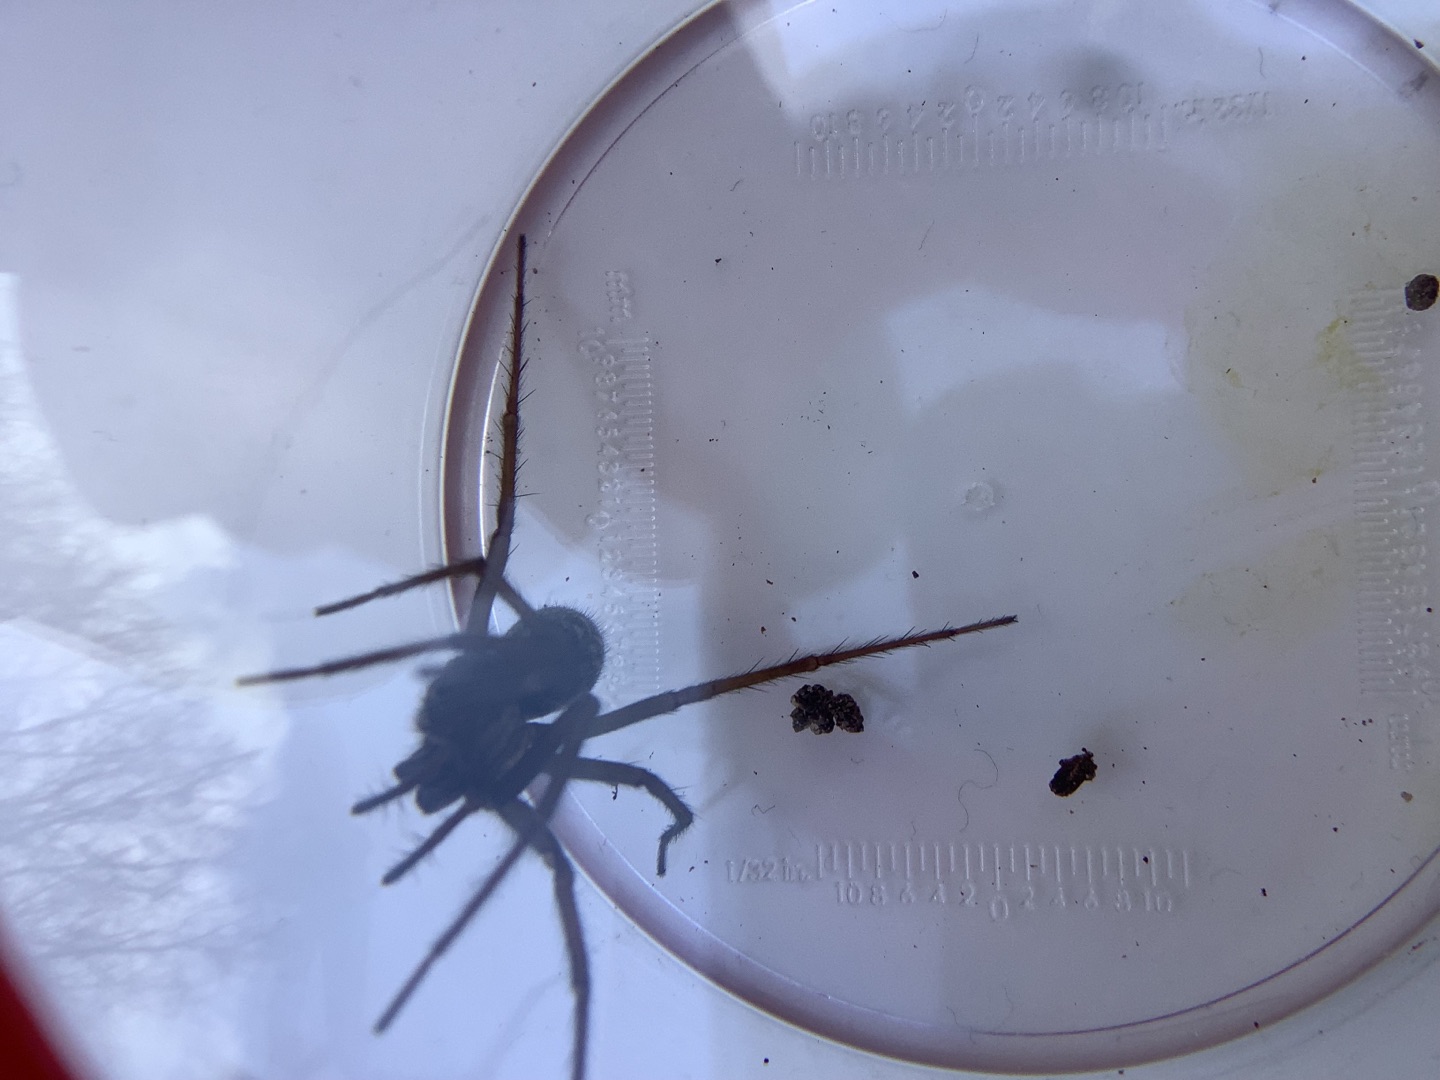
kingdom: Animalia
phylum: Arthropoda
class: Arachnida
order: Araneae
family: Agelenidae
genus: Eratigena
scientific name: Eratigena atrica
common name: Stor husedderkop
